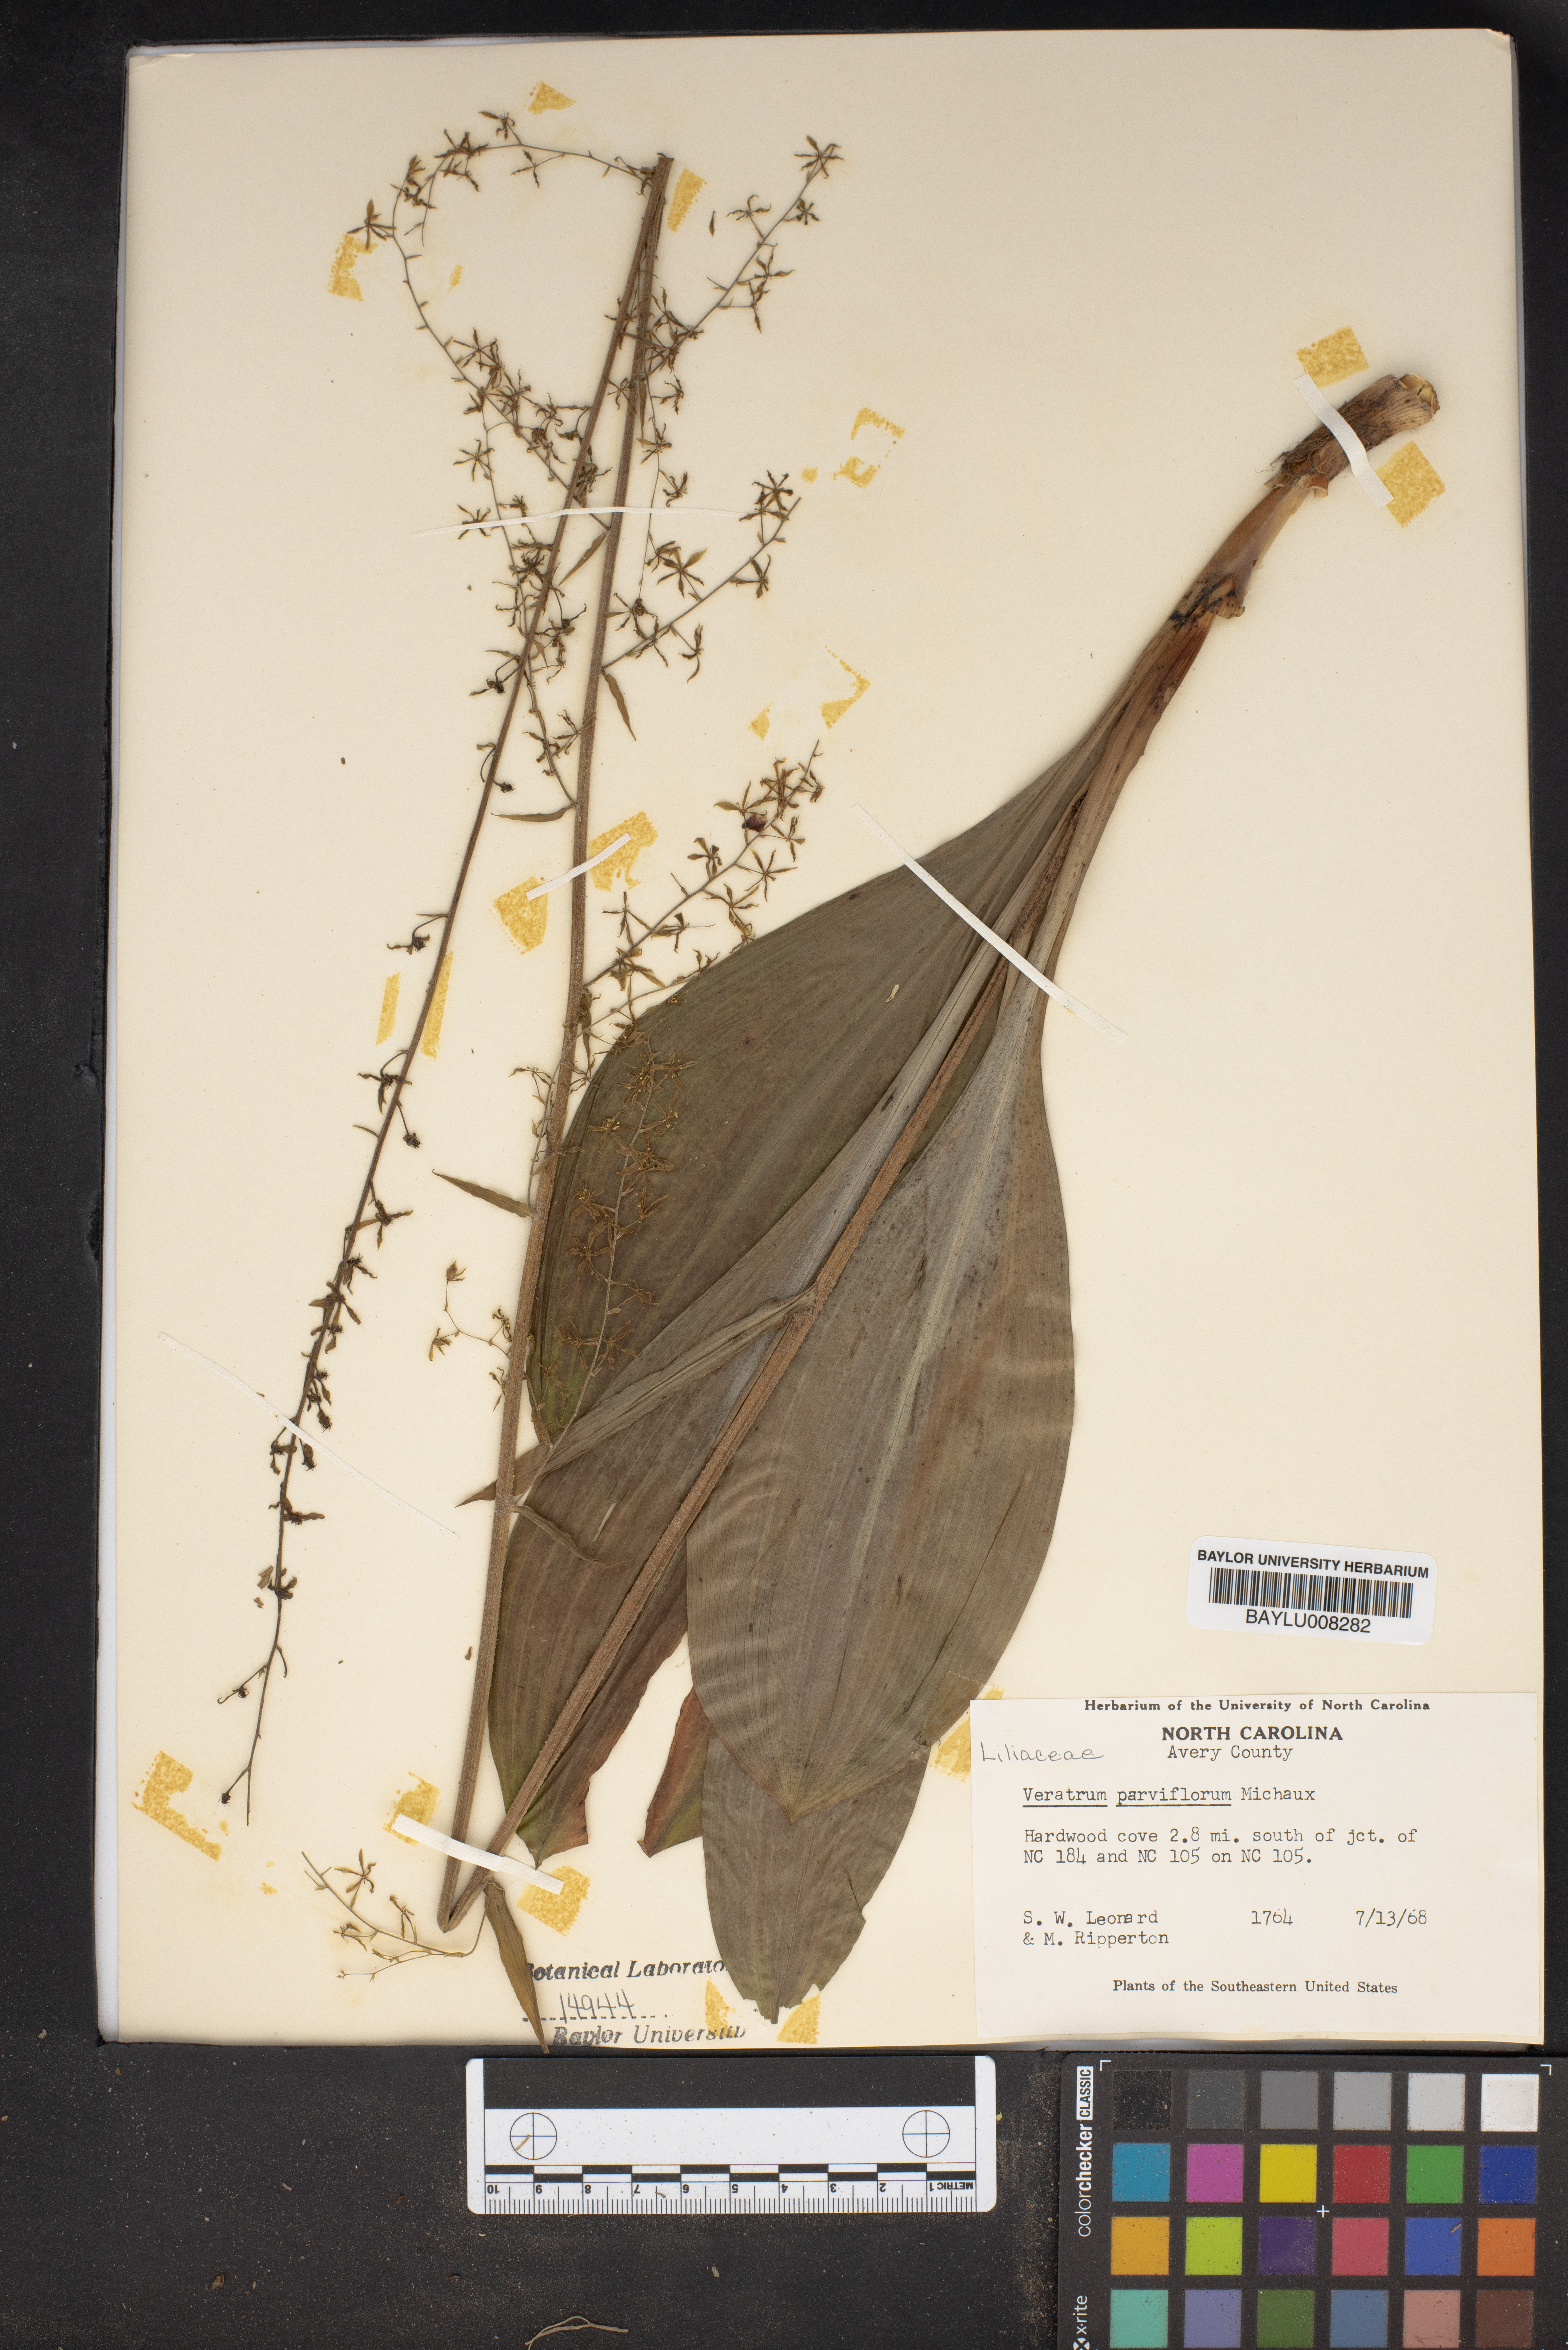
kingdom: Plantae
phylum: Tracheophyta
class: Liliopsida
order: Liliales
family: Melanthiaceae
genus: Melanthium
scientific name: Melanthium parviflorum
